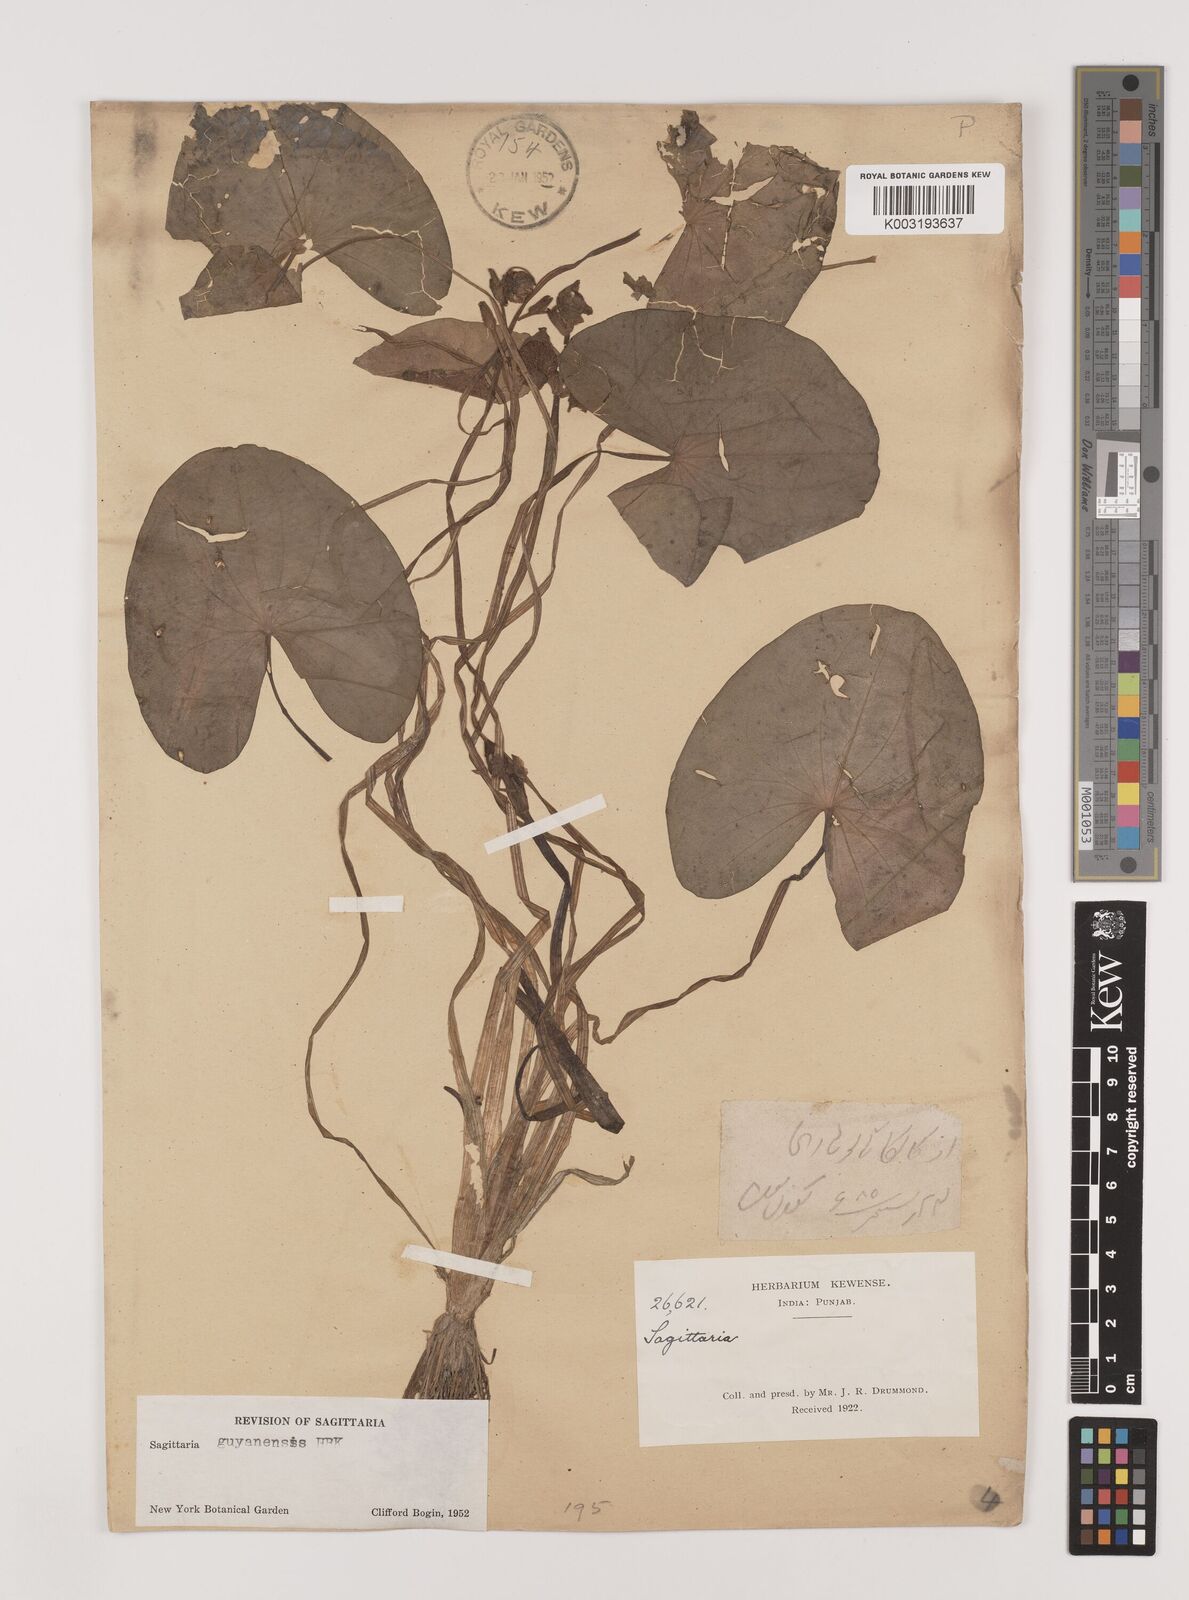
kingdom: Plantae
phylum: Tracheophyta
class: Liliopsida
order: Alismatales
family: Alismataceae
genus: Sagittaria
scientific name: Sagittaria guayanensis
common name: Guyanese arrowhead
